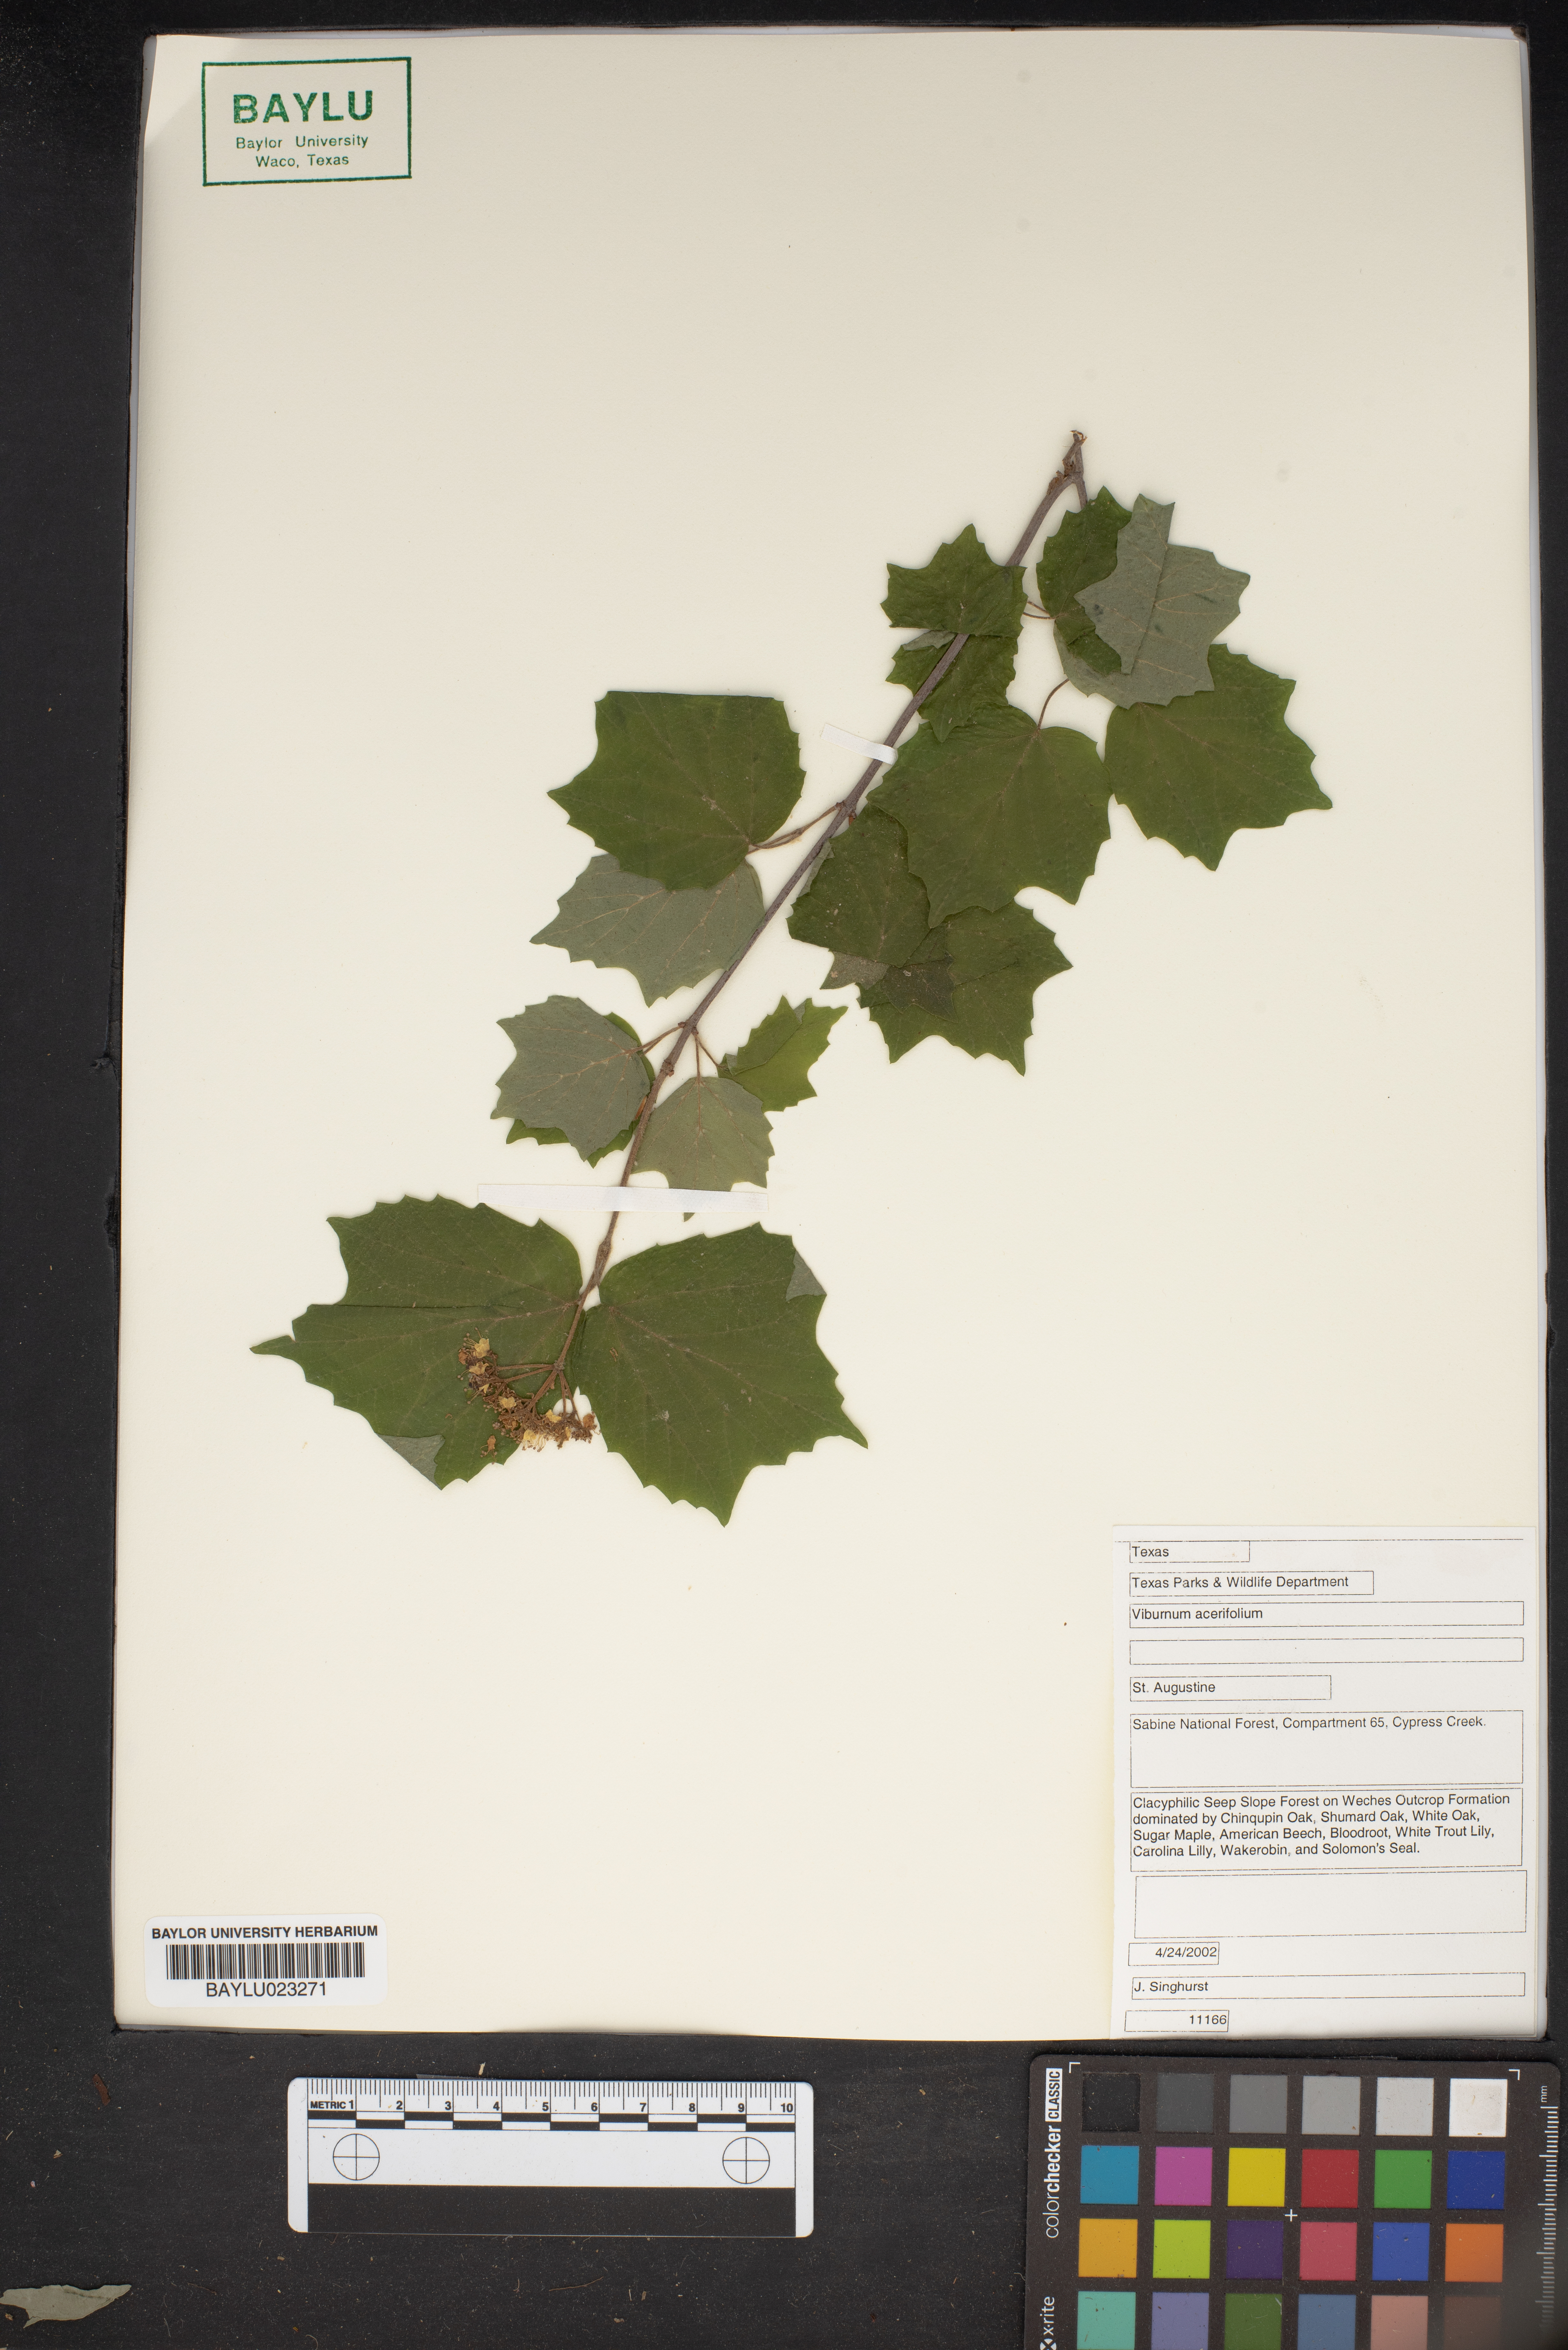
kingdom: Plantae
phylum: Tracheophyta
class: Magnoliopsida
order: Dipsacales
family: Viburnaceae
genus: Viburnum
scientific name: Viburnum acerifolium
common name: Dockmackie
